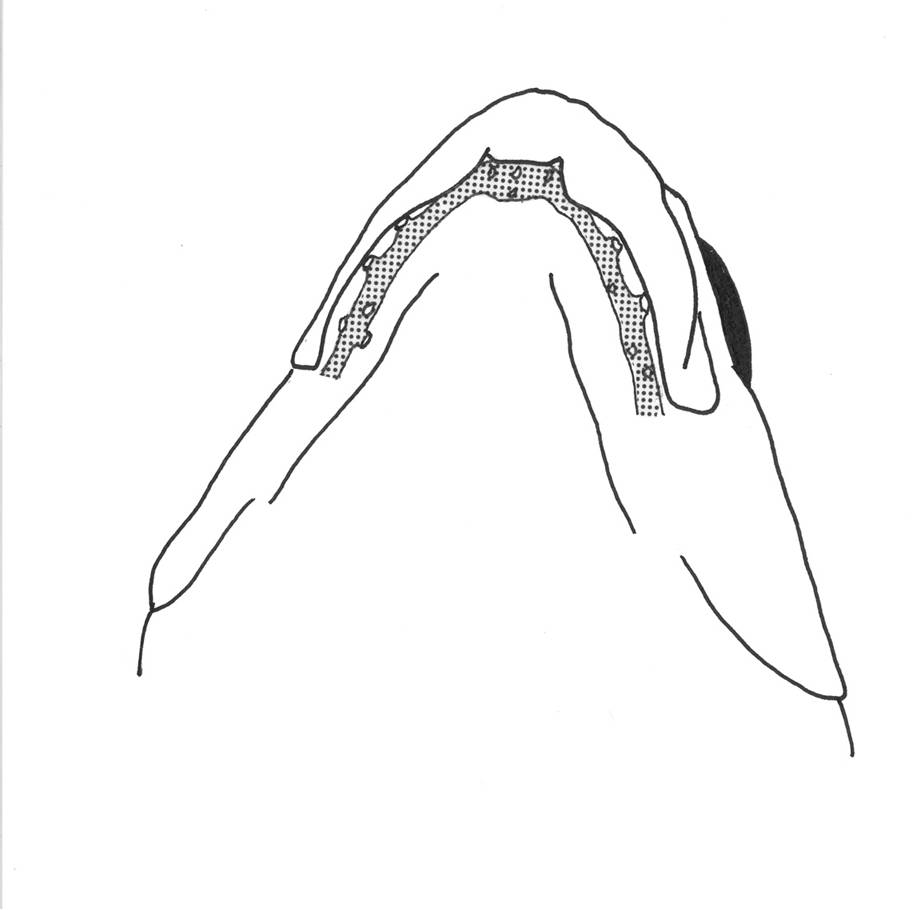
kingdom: Animalia
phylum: Chordata
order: Perciformes
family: Tripterygiidae
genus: Helcogramma
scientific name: Helcogramma ellioti
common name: Red-eye threefin
